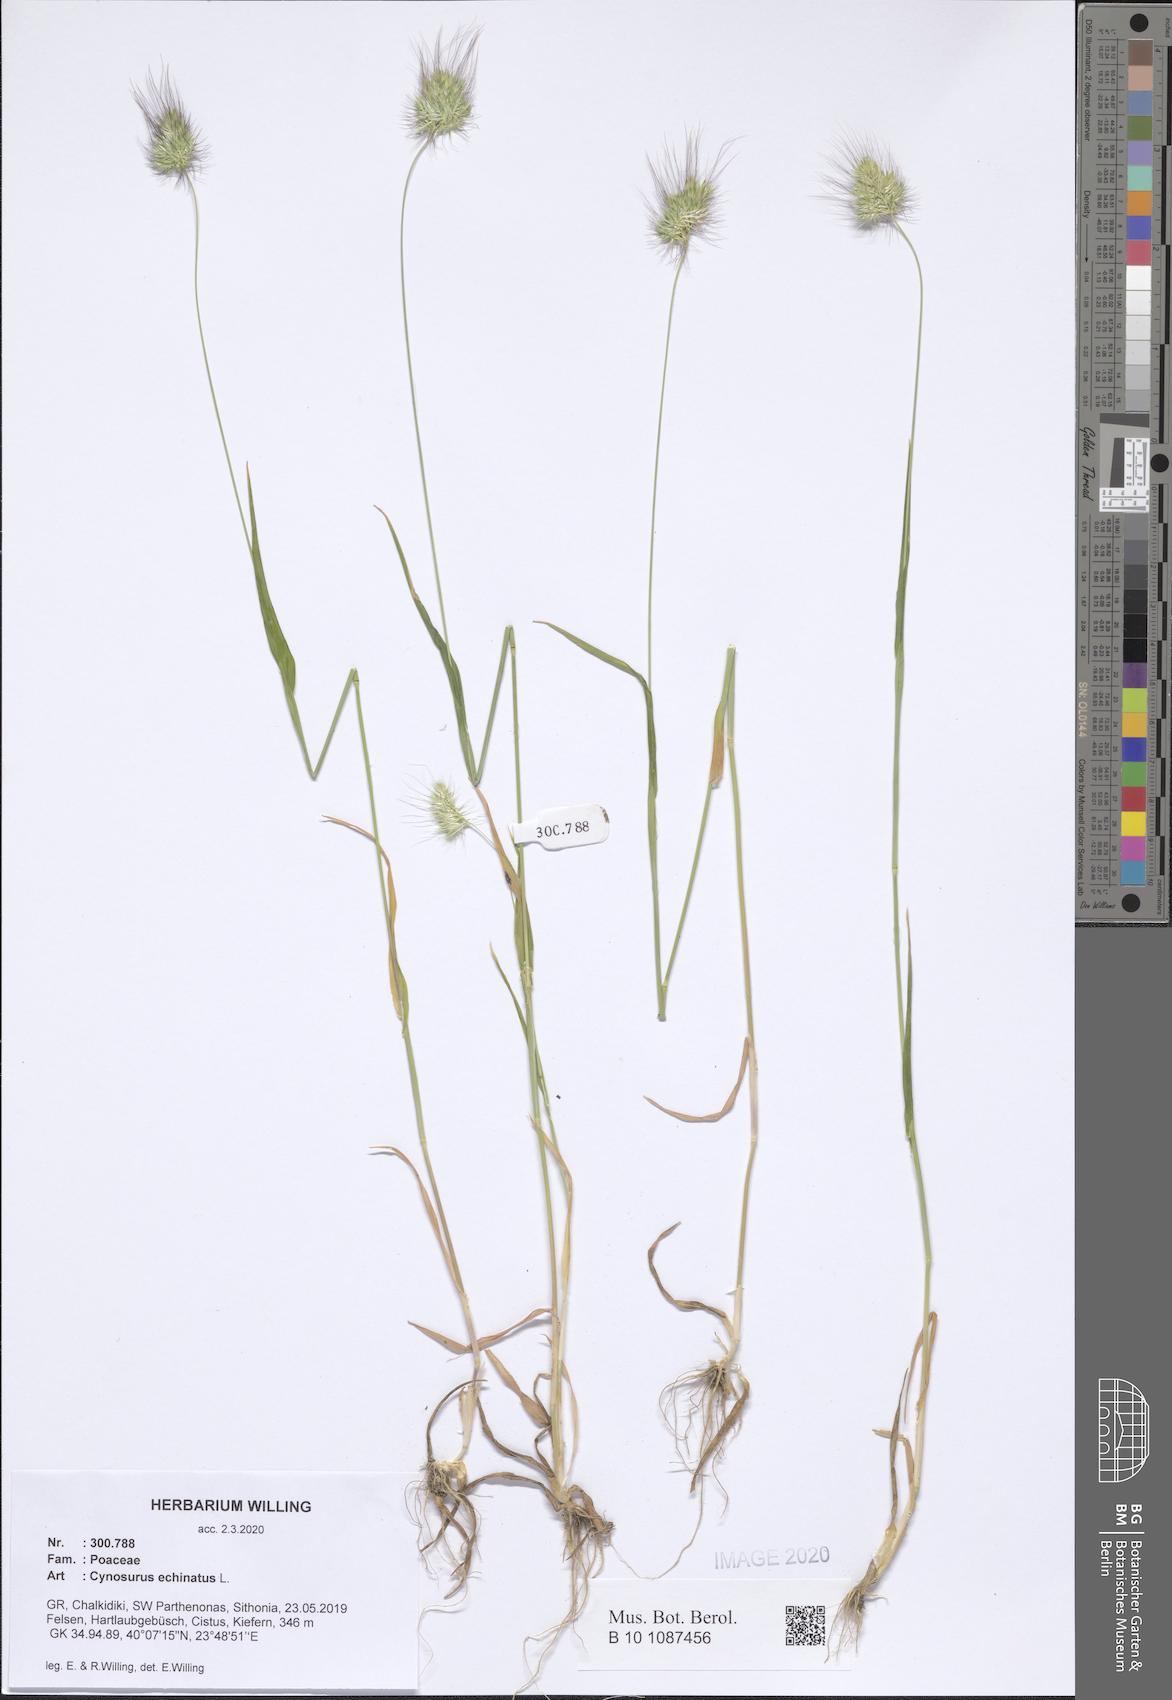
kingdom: Plantae
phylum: Tracheophyta
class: Liliopsida
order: Poales
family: Poaceae
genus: Cynosurus
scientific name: Cynosurus echinatus
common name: Rough dog's-tail
